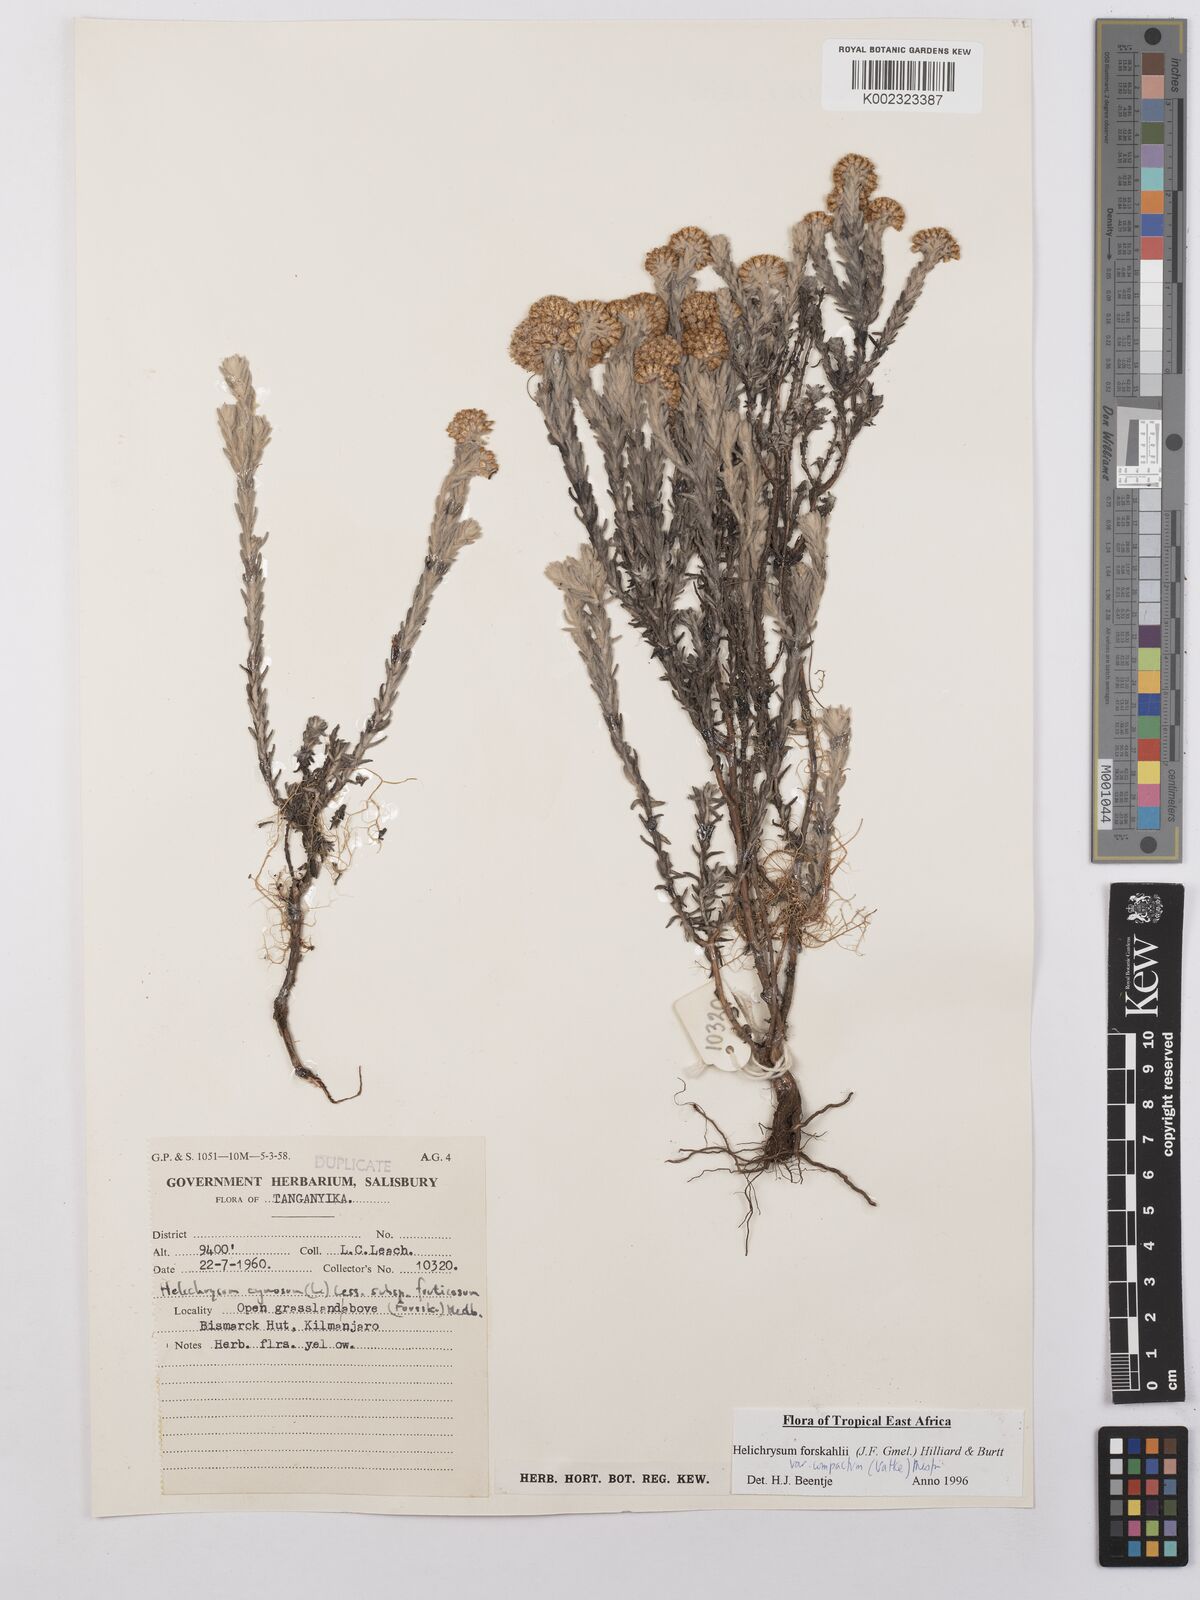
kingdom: Plantae
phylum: Tracheophyta
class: Magnoliopsida
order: Asterales
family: Asteraceae
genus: Helichrysum
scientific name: Helichrysum forskahlii
